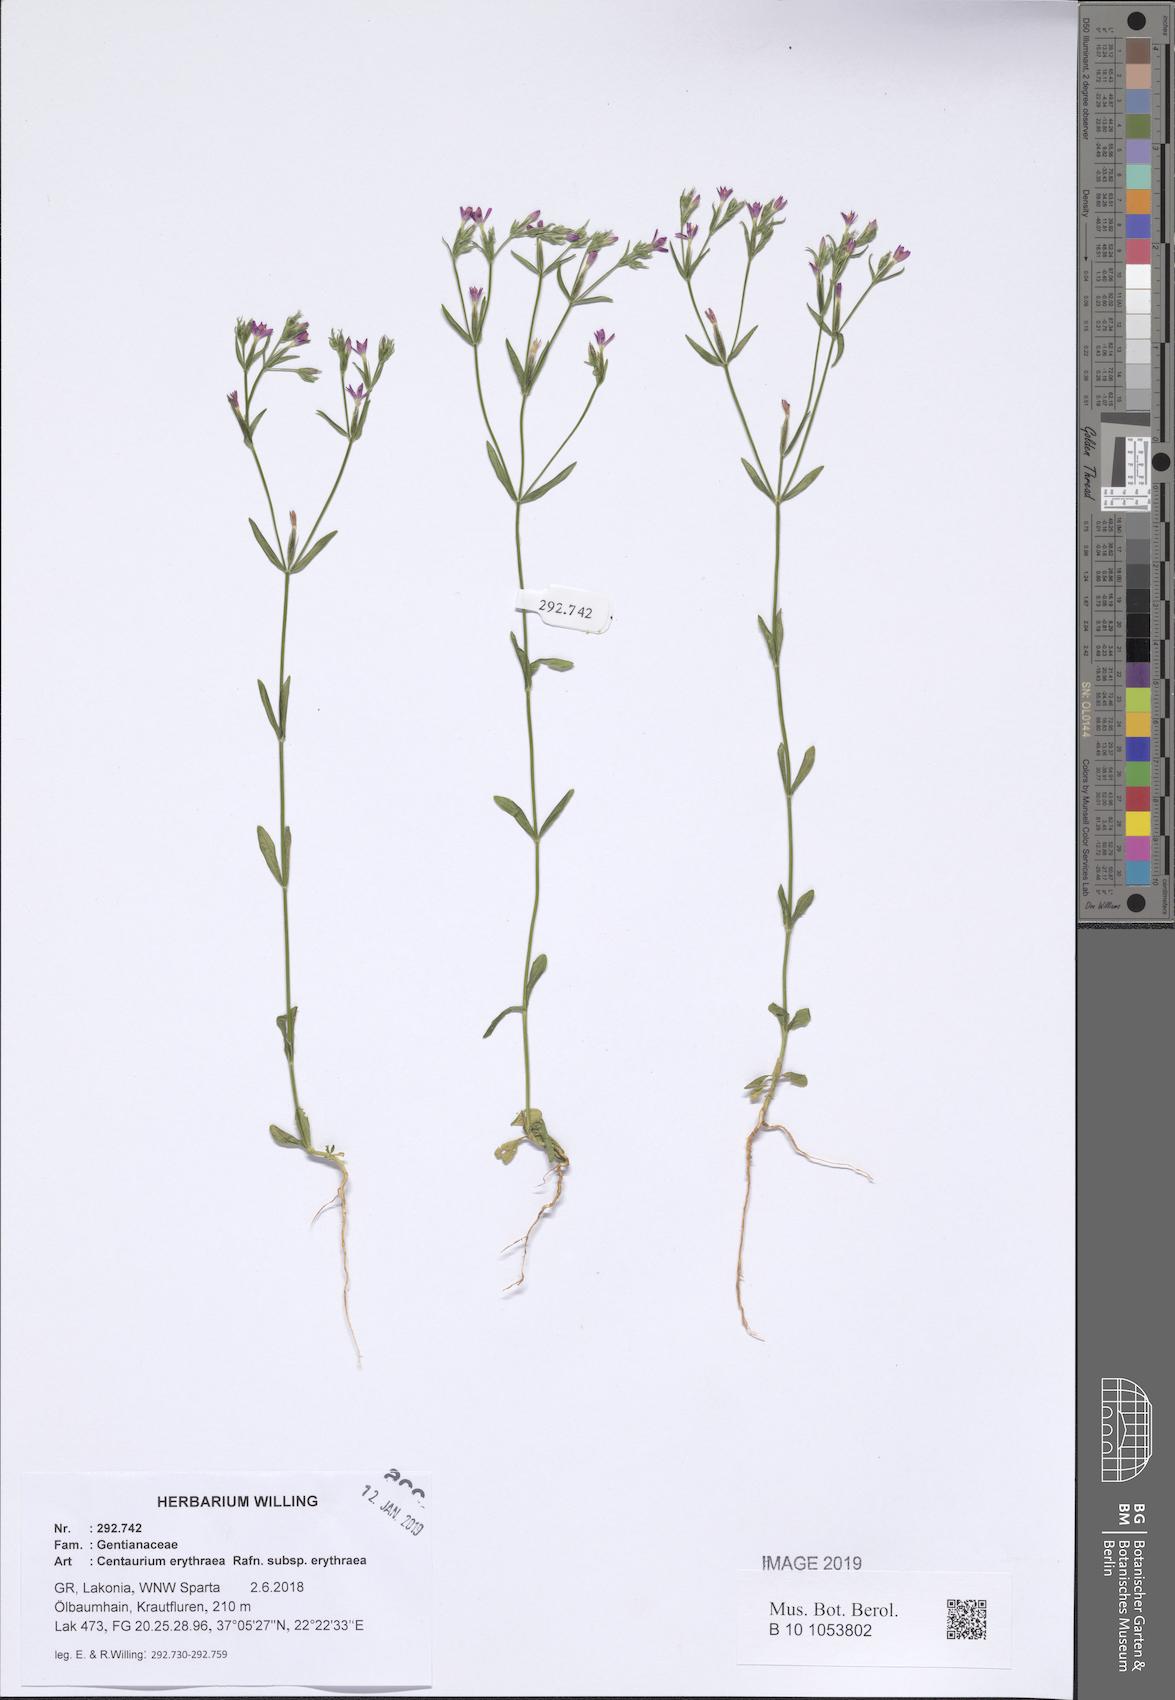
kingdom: Plantae
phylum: Tracheophyta
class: Magnoliopsida
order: Gentianales
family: Gentianaceae
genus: Centaurium
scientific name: Centaurium erythraea
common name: Common centaury
